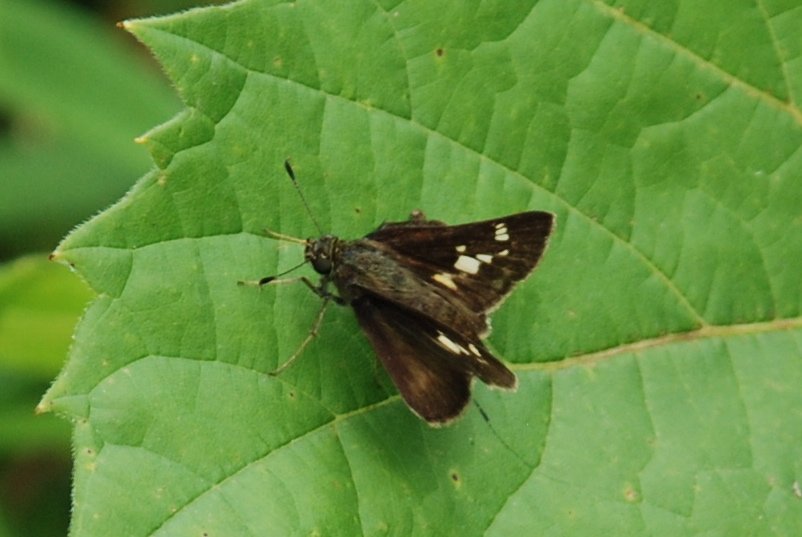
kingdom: Animalia
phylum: Arthropoda
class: Insecta
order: Lepidoptera
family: Hesperiidae
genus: Vernia
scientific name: Vernia verna
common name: Little Glassywing
